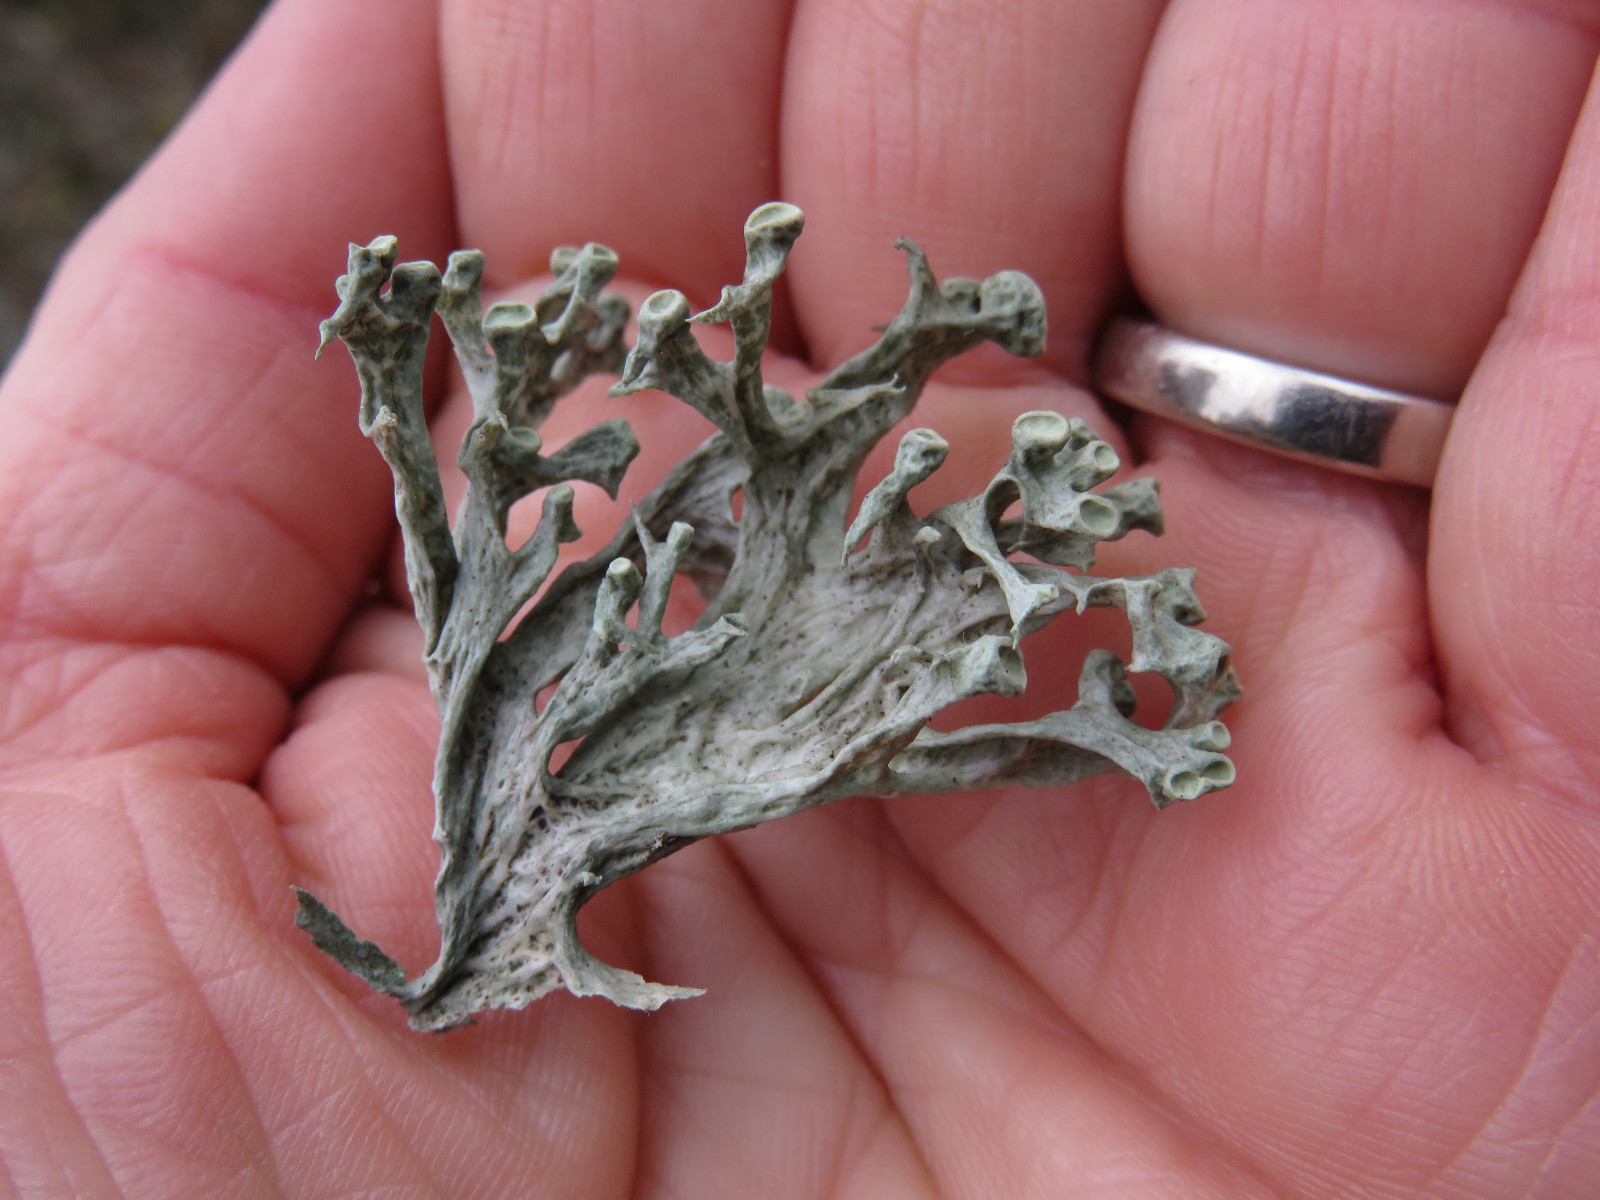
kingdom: Fungi
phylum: Ascomycota
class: Lecanoromycetes
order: Lecanorales
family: Ramalinaceae
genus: Ramalina
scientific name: Ramalina fastigiata
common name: tue-grenlav
